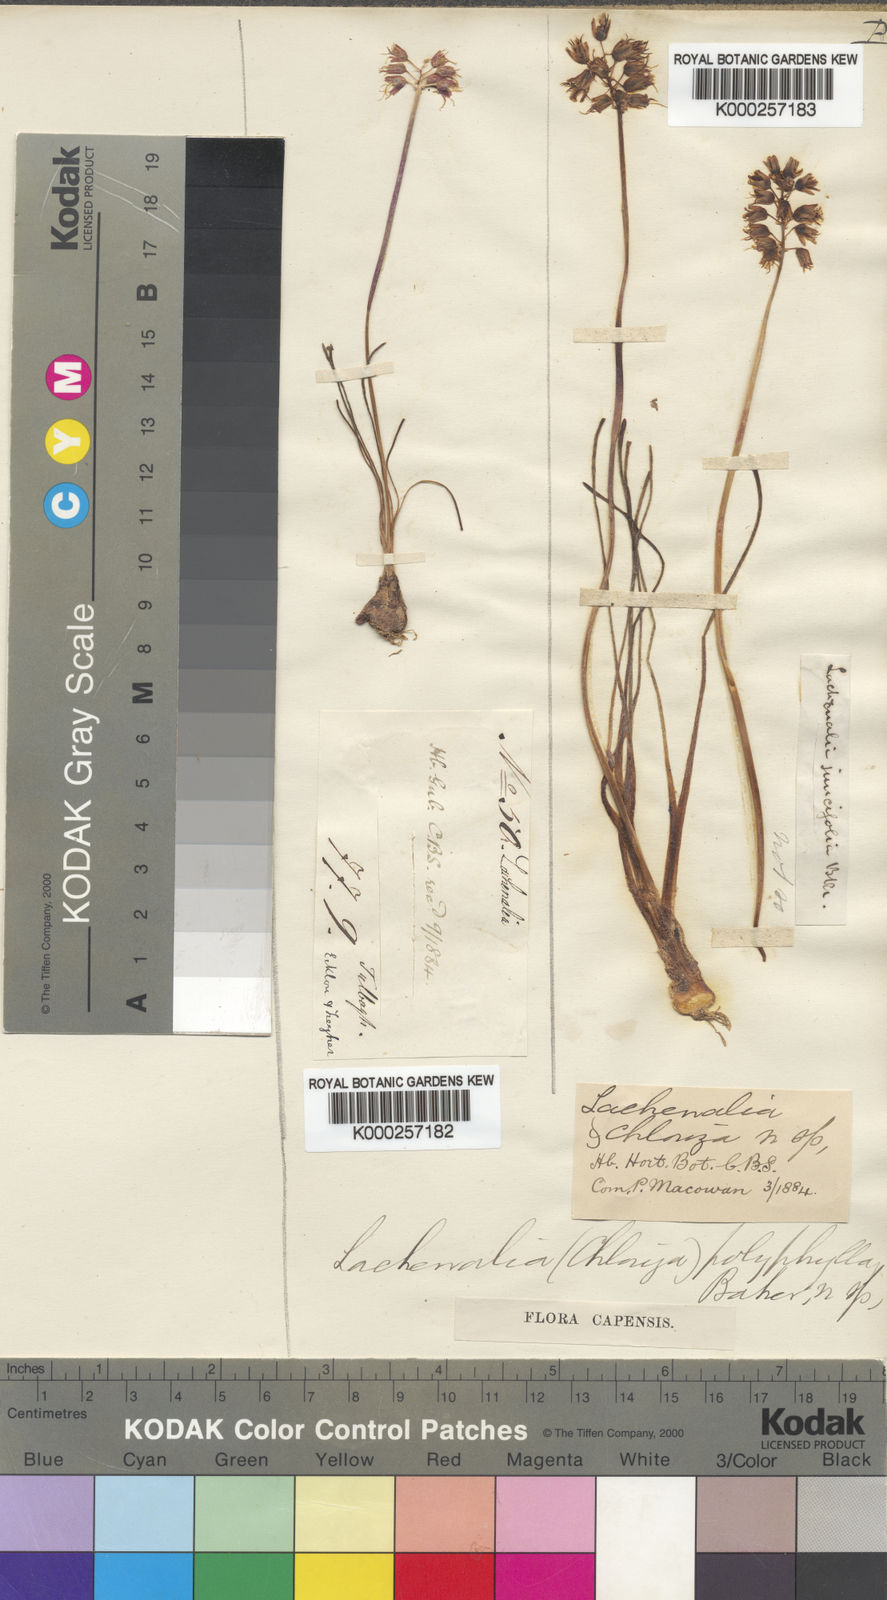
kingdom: Plantae
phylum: Tracheophyta
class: Liliopsida
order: Asparagales
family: Asparagaceae
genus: Lachenalia
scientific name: Lachenalia polyphylla
